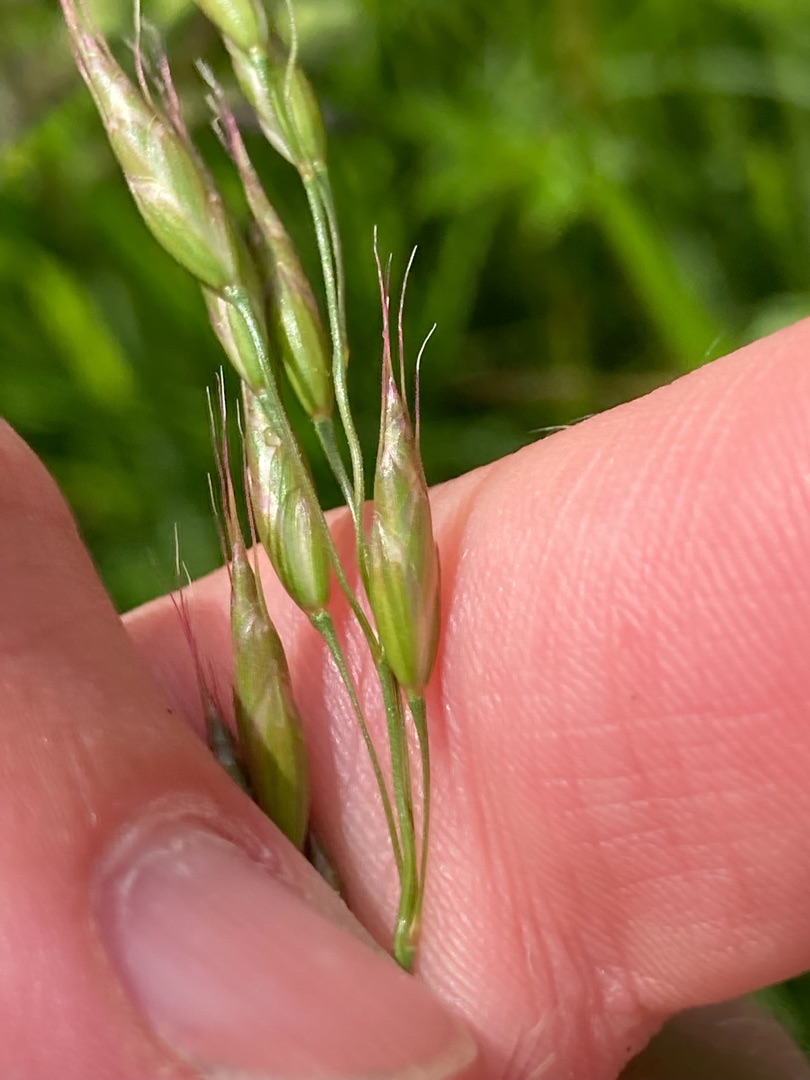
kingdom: Plantae
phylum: Tracheophyta
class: Liliopsida
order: Poales
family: Poaceae
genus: Bromus
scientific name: Bromus racemosus
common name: Eng-hejre
